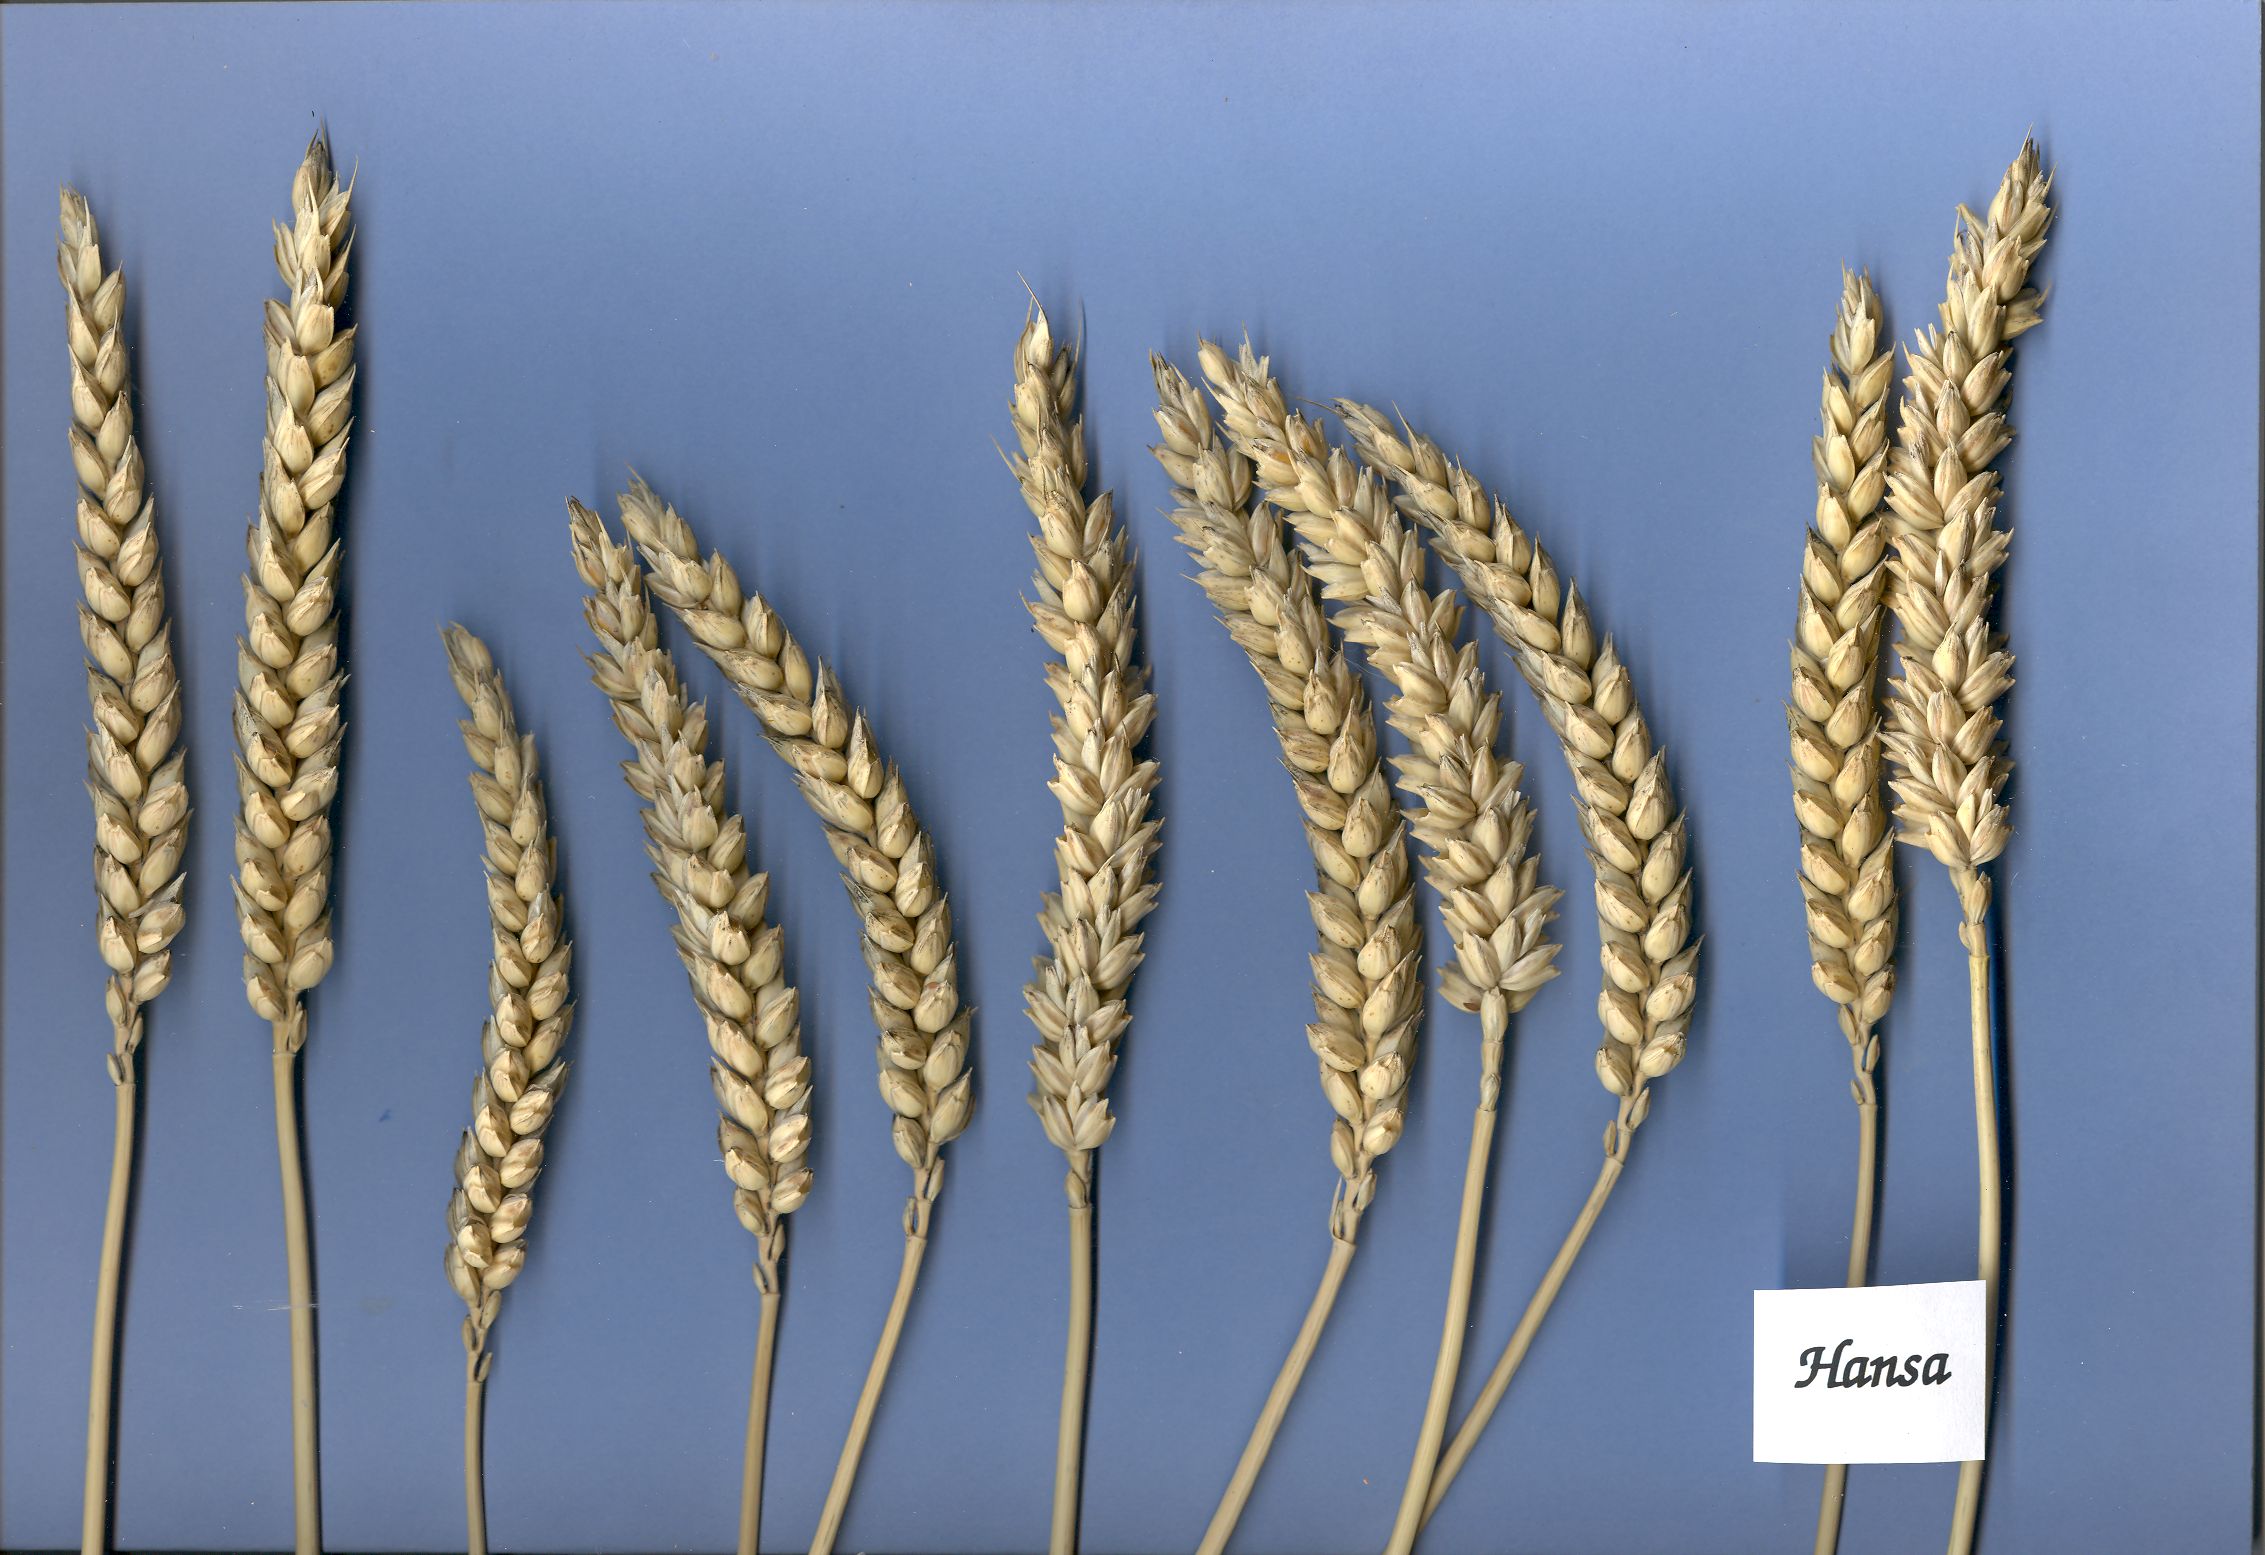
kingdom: Plantae
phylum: Tracheophyta
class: Liliopsida
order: Poales
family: Poaceae
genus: Triticum
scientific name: Triticum aestivum
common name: Common wheat
